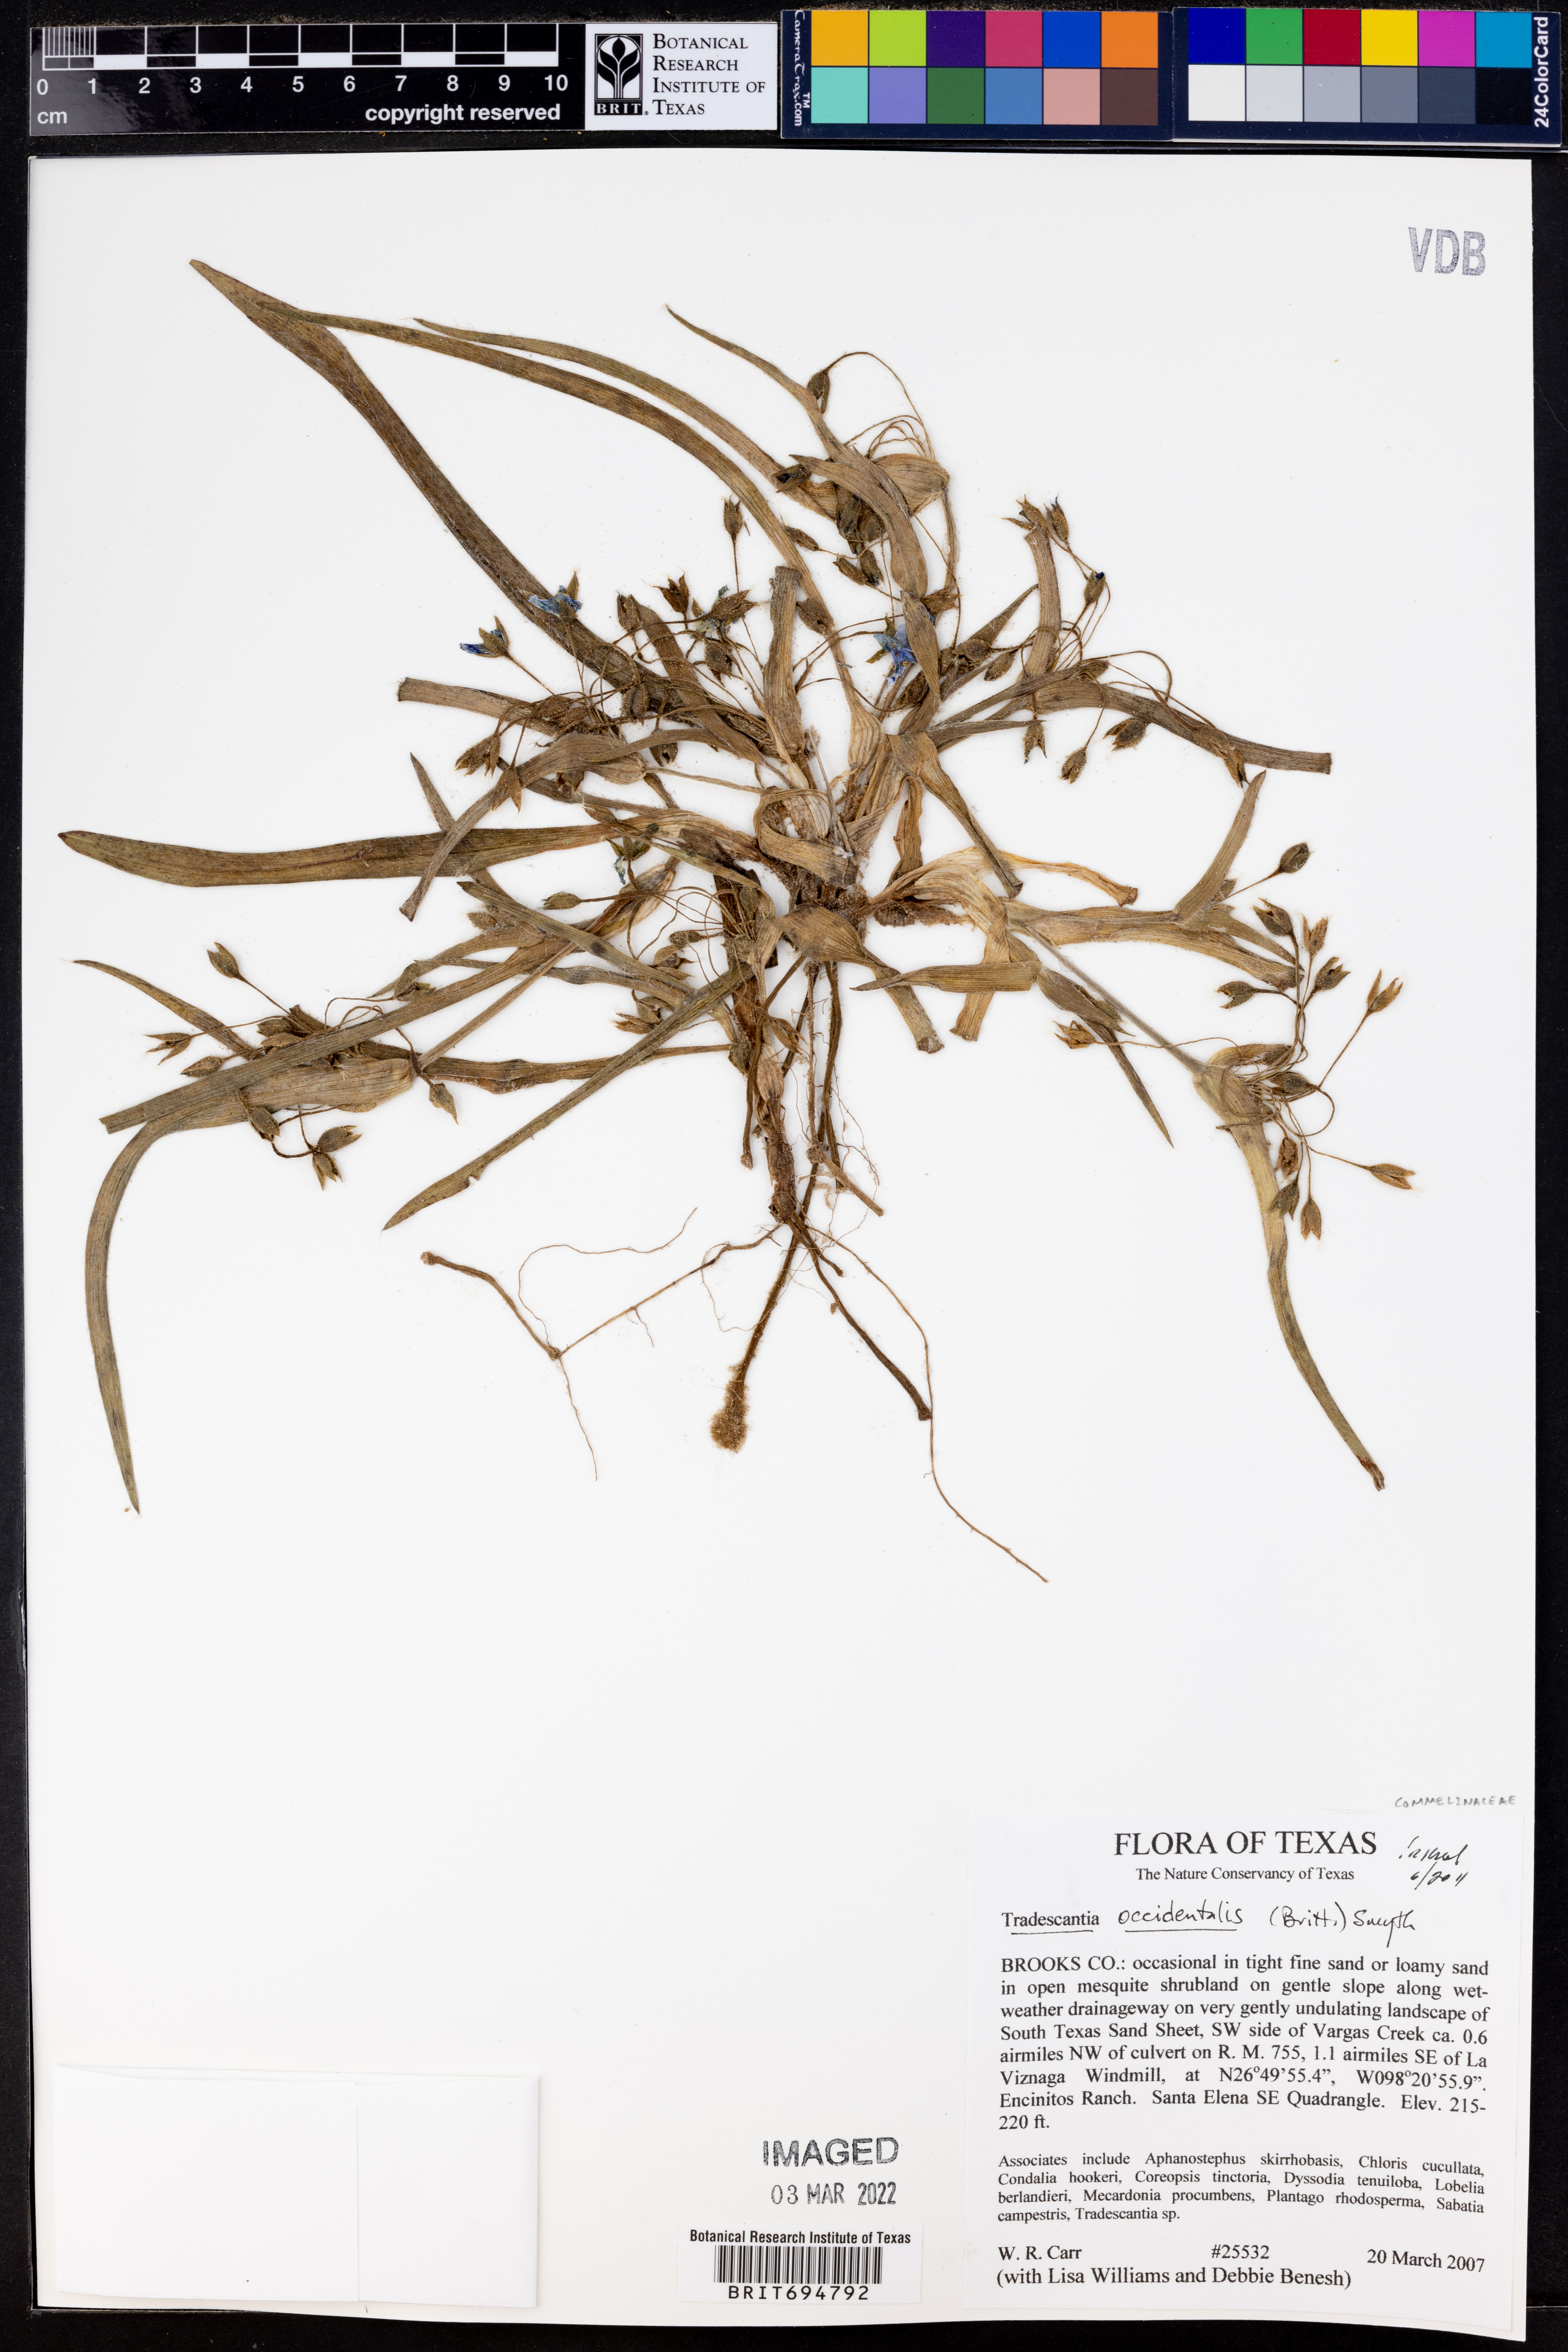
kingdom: Plantae
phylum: Tracheophyta
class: Liliopsida
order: Commelinales
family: Commelinaceae
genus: Tradescantia
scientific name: Tradescantia occidentalis
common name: Prairie spiderwort
